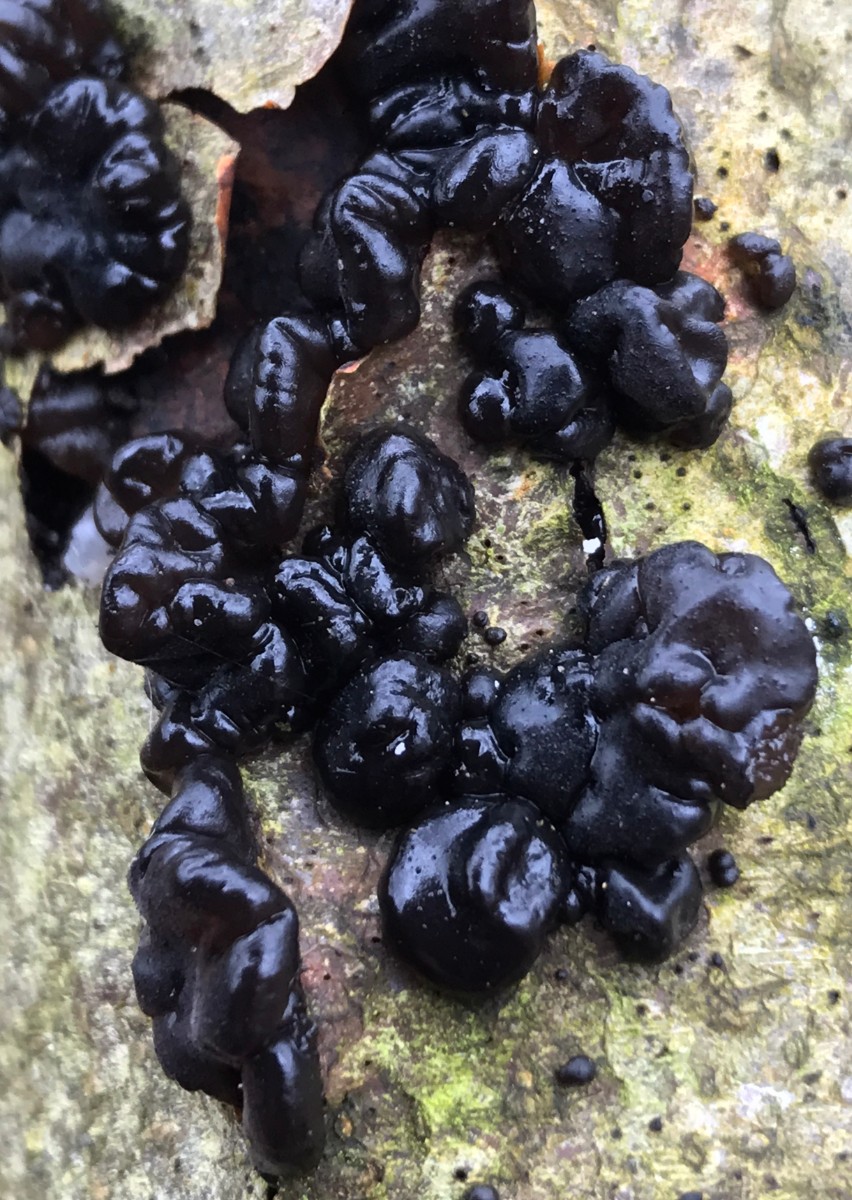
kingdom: Fungi
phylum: Basidiomycota
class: Agaricomycetes
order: Auriculariales
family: Auriculariaceae
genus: Exidia
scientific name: Exidia nigricans
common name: almindelig bævretop
